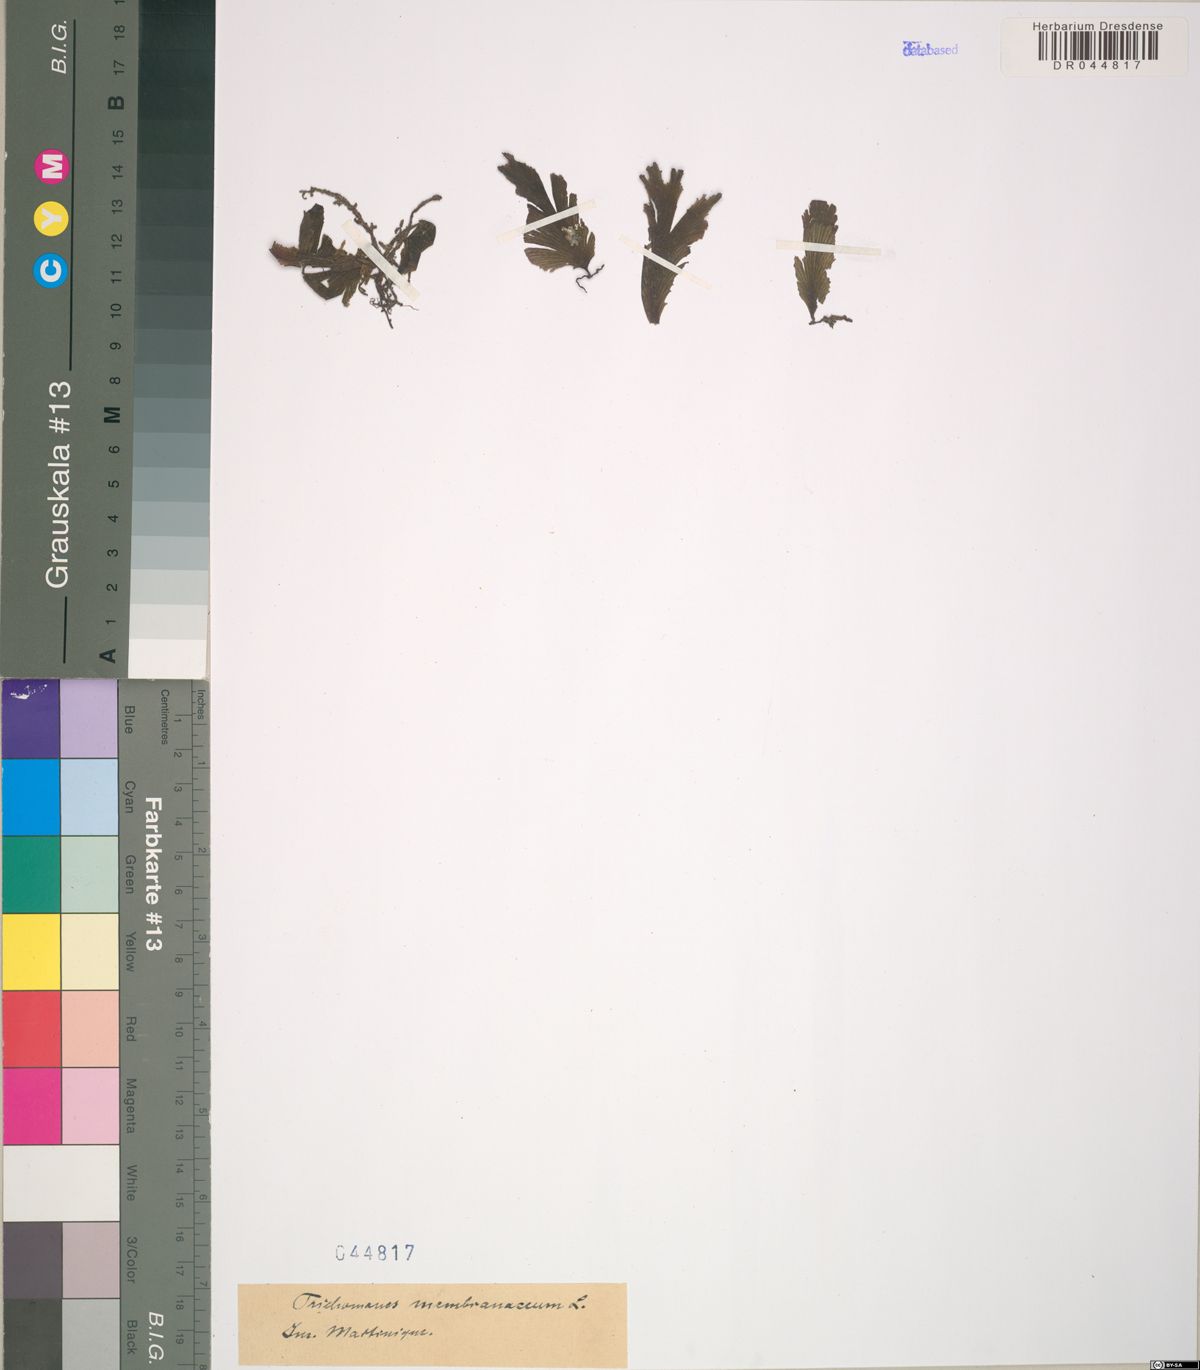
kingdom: Plantae
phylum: Tracheophyta
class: Polypodiopsida
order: Hymenophyllales
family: Hymenophyllaceae
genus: Didymoglossum
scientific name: Didymoglossum membranaceum
